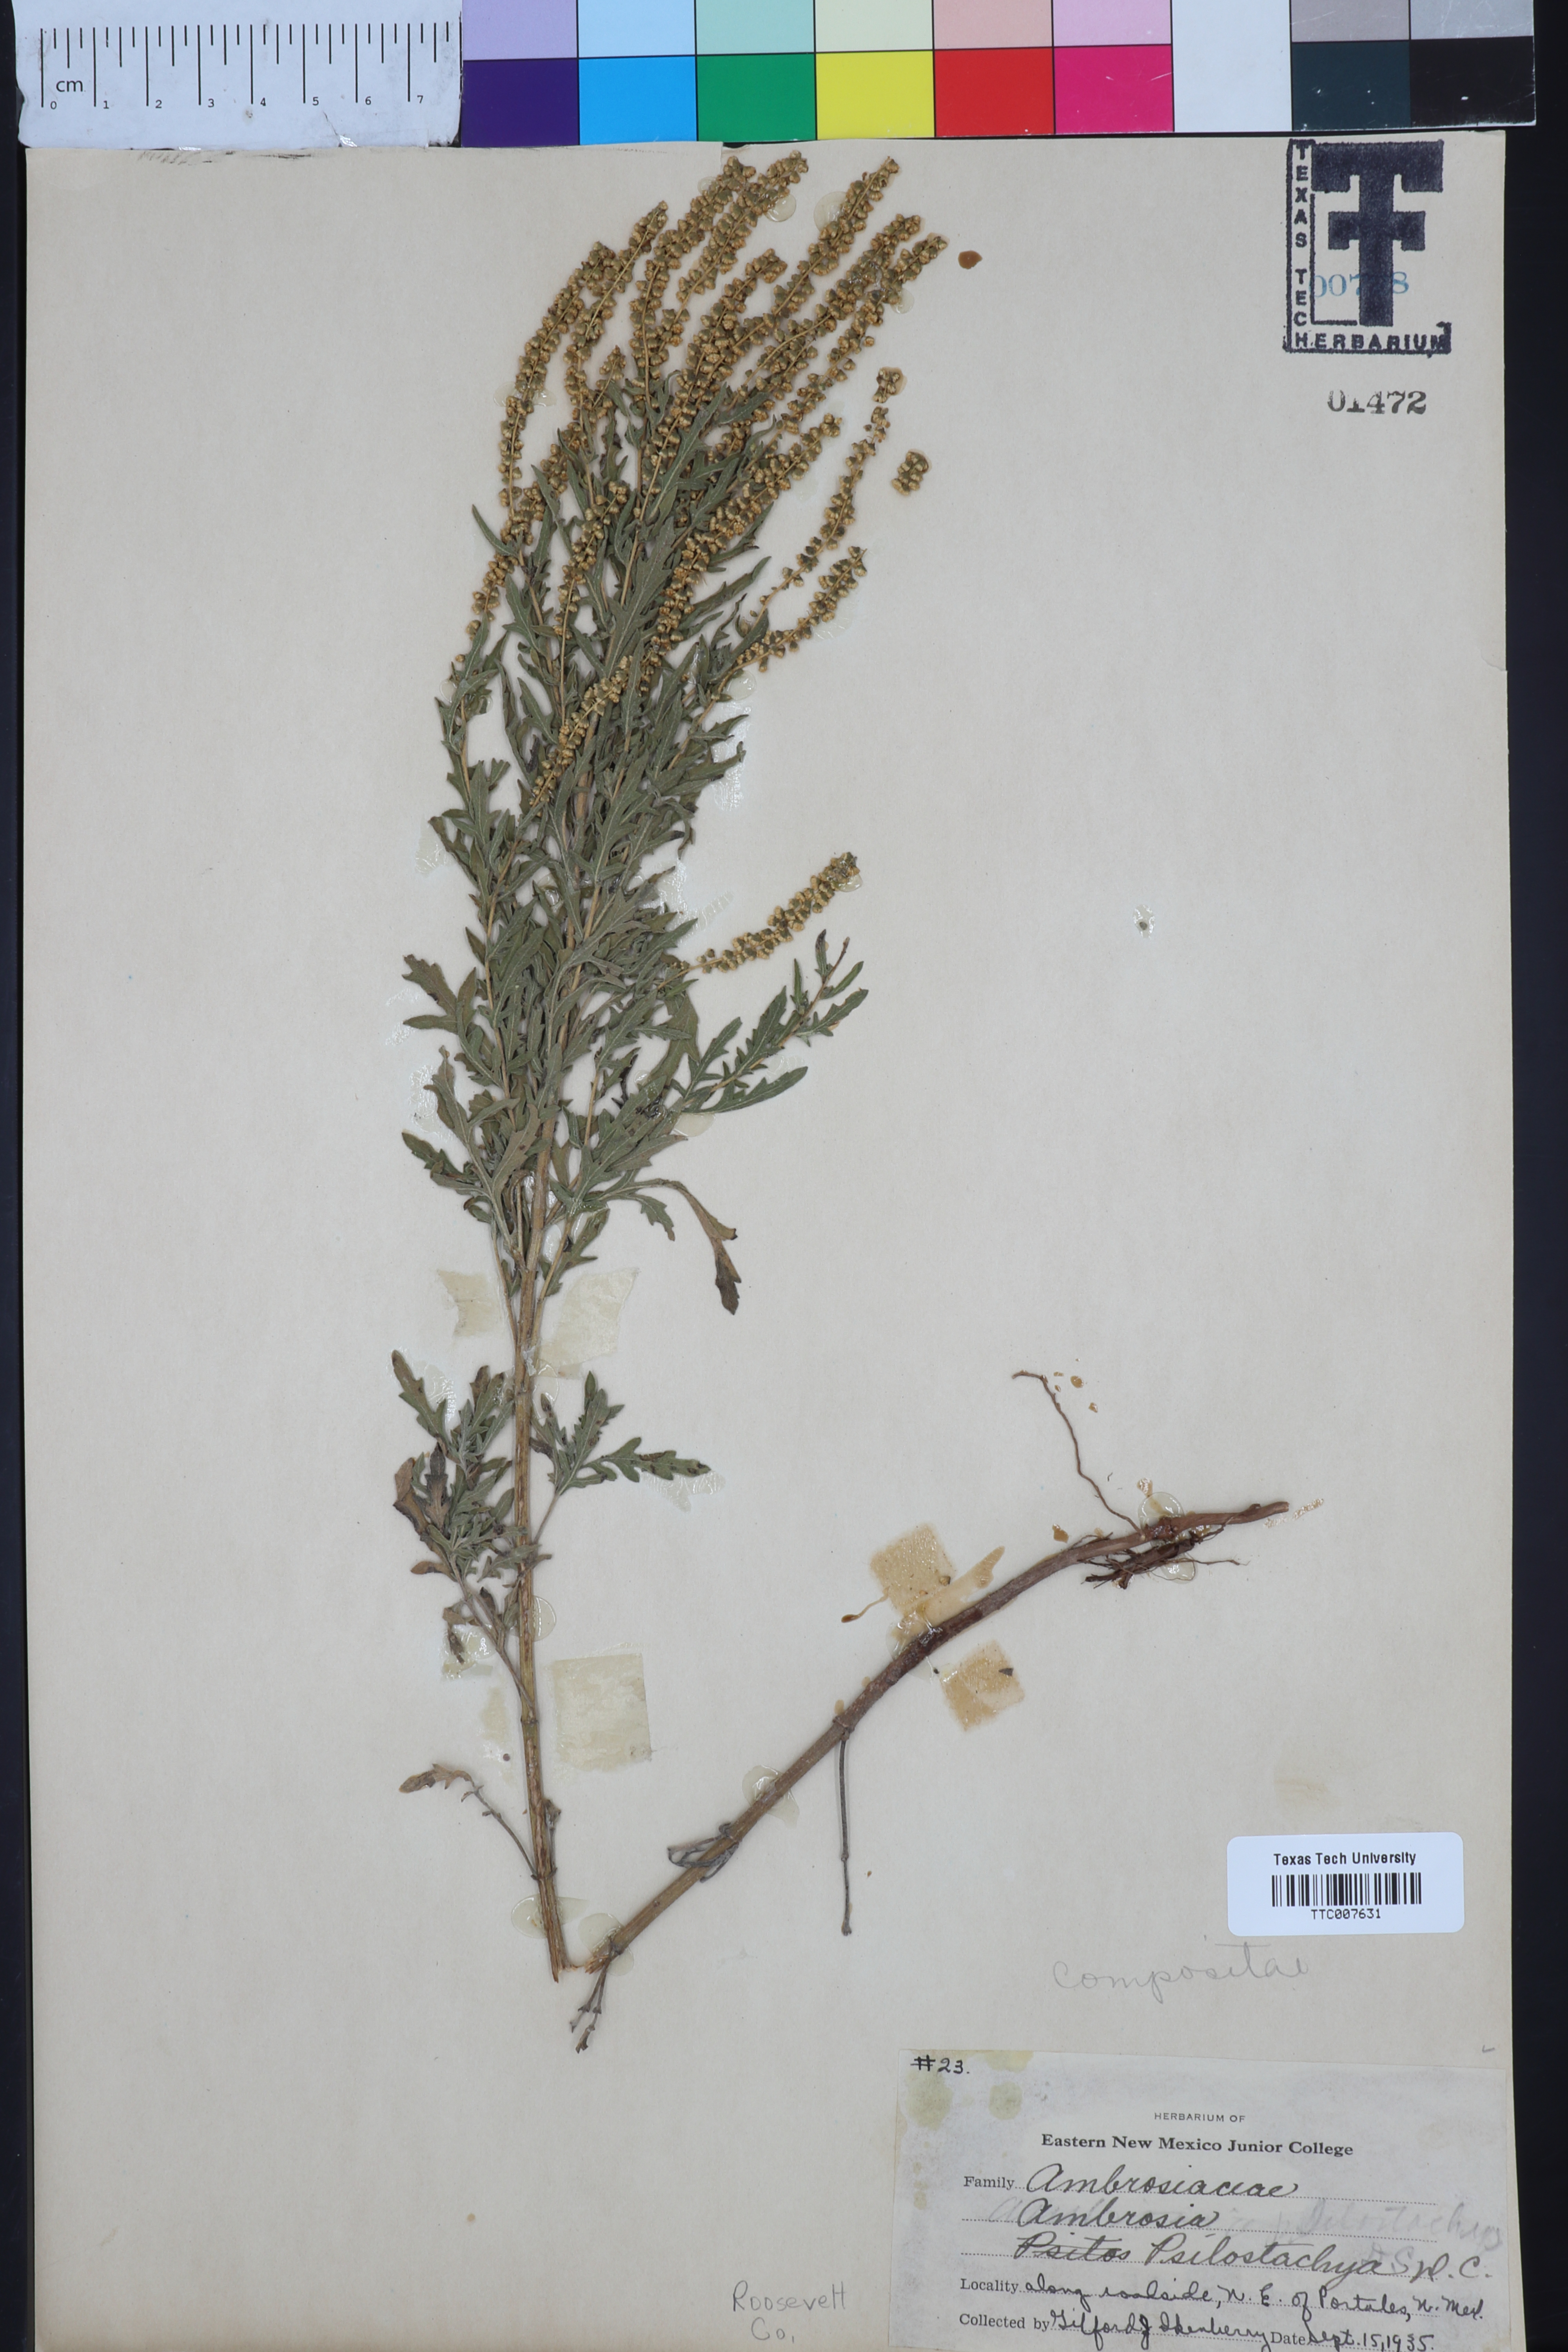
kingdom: Plantae
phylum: Tracheophyta
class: Magnoliopsida
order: Asterales
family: Asteraceae
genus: Ambrosia
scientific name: Ambrosia psilostachya
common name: Perennial ragweed
